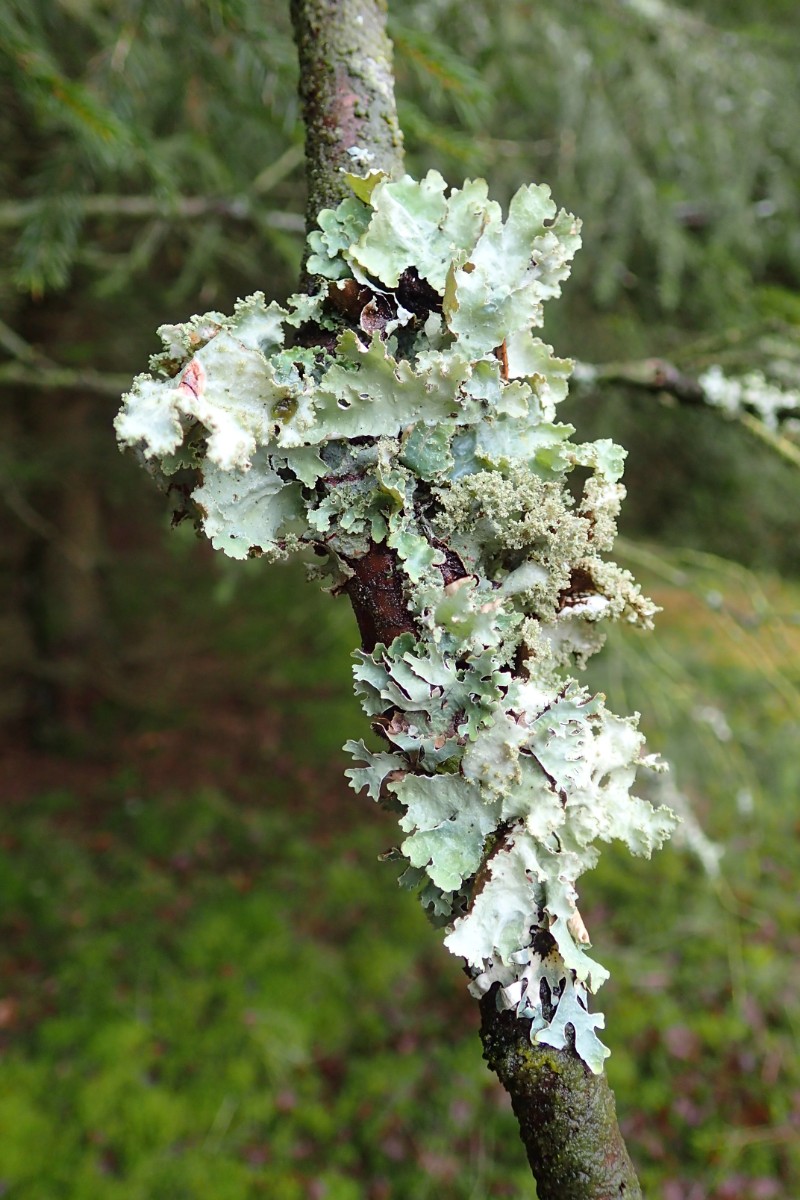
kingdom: Fungi
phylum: Ascomycota
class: Lecanoromycetes
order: Lecanorales
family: Parmeliaceae
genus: Platismatia
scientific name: Platismatia glauca
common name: blågrå papirlav
